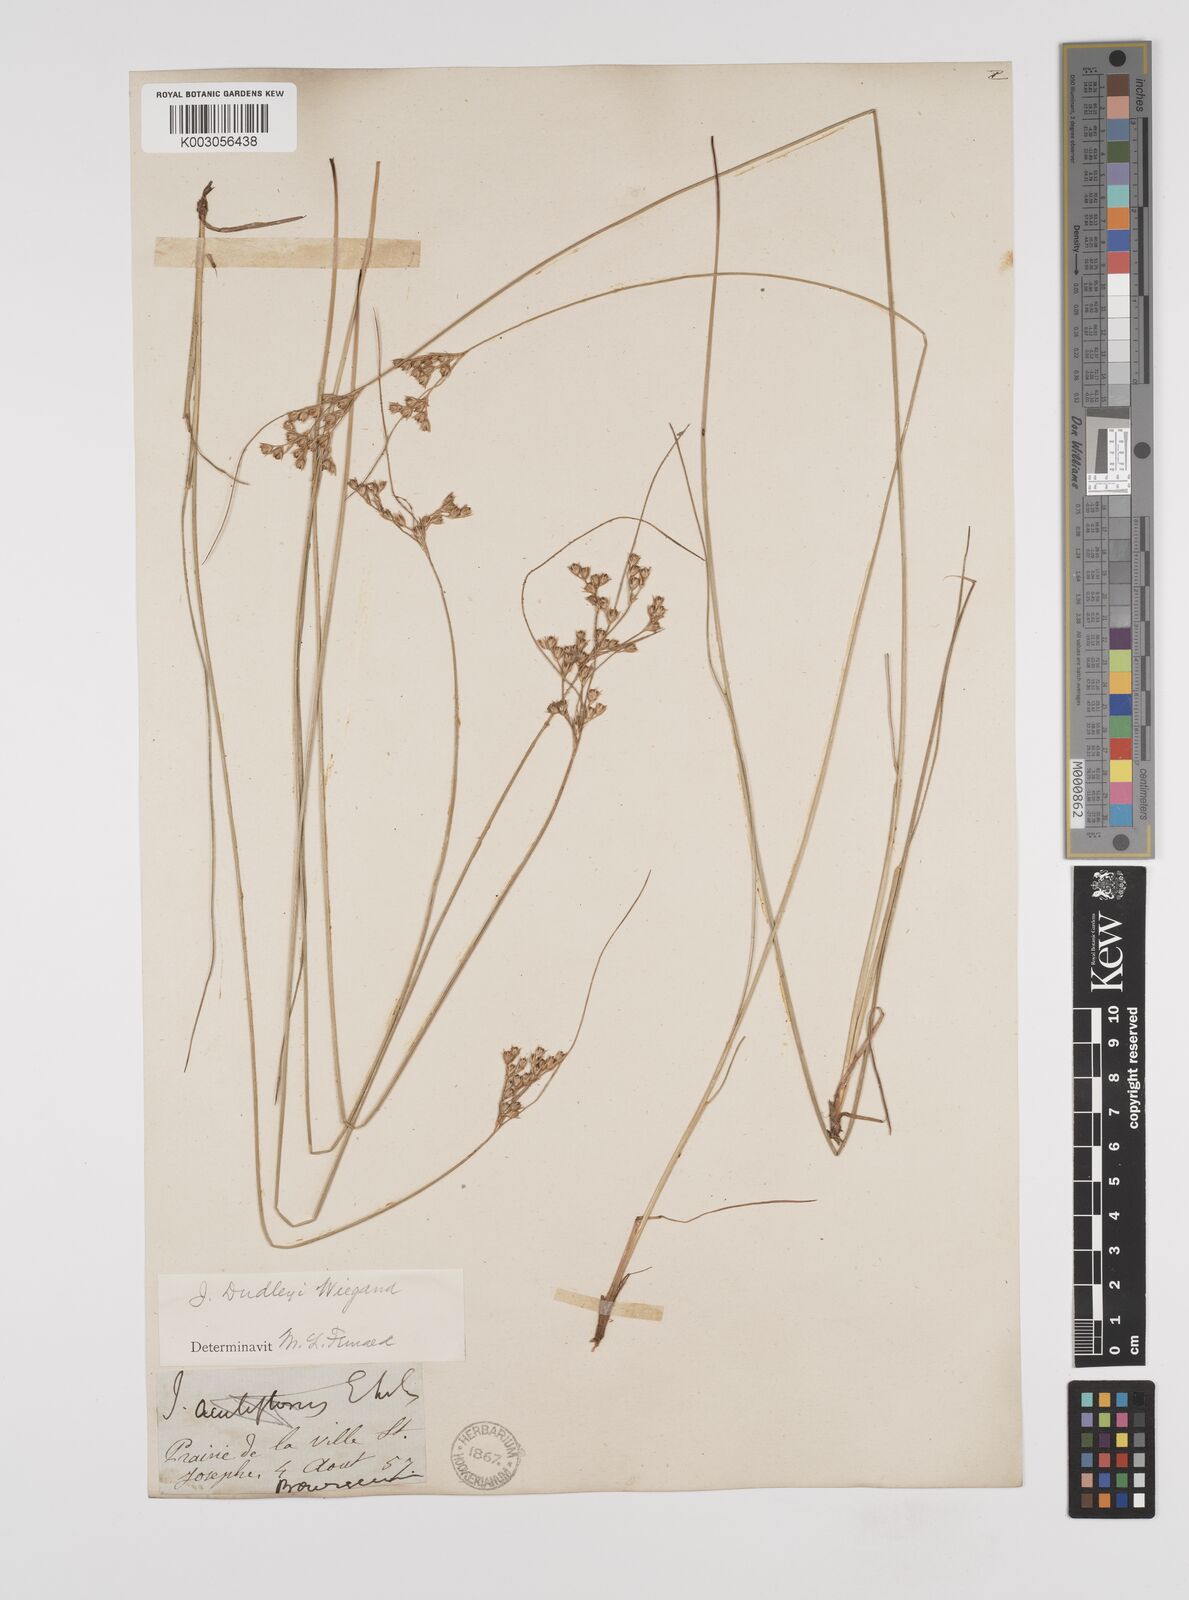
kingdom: Plantae
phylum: Tracheophyta
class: Liliopsida
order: Poales
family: Juncaceae
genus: Juncus
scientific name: Juncus dudleyi
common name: Dudley's rush
